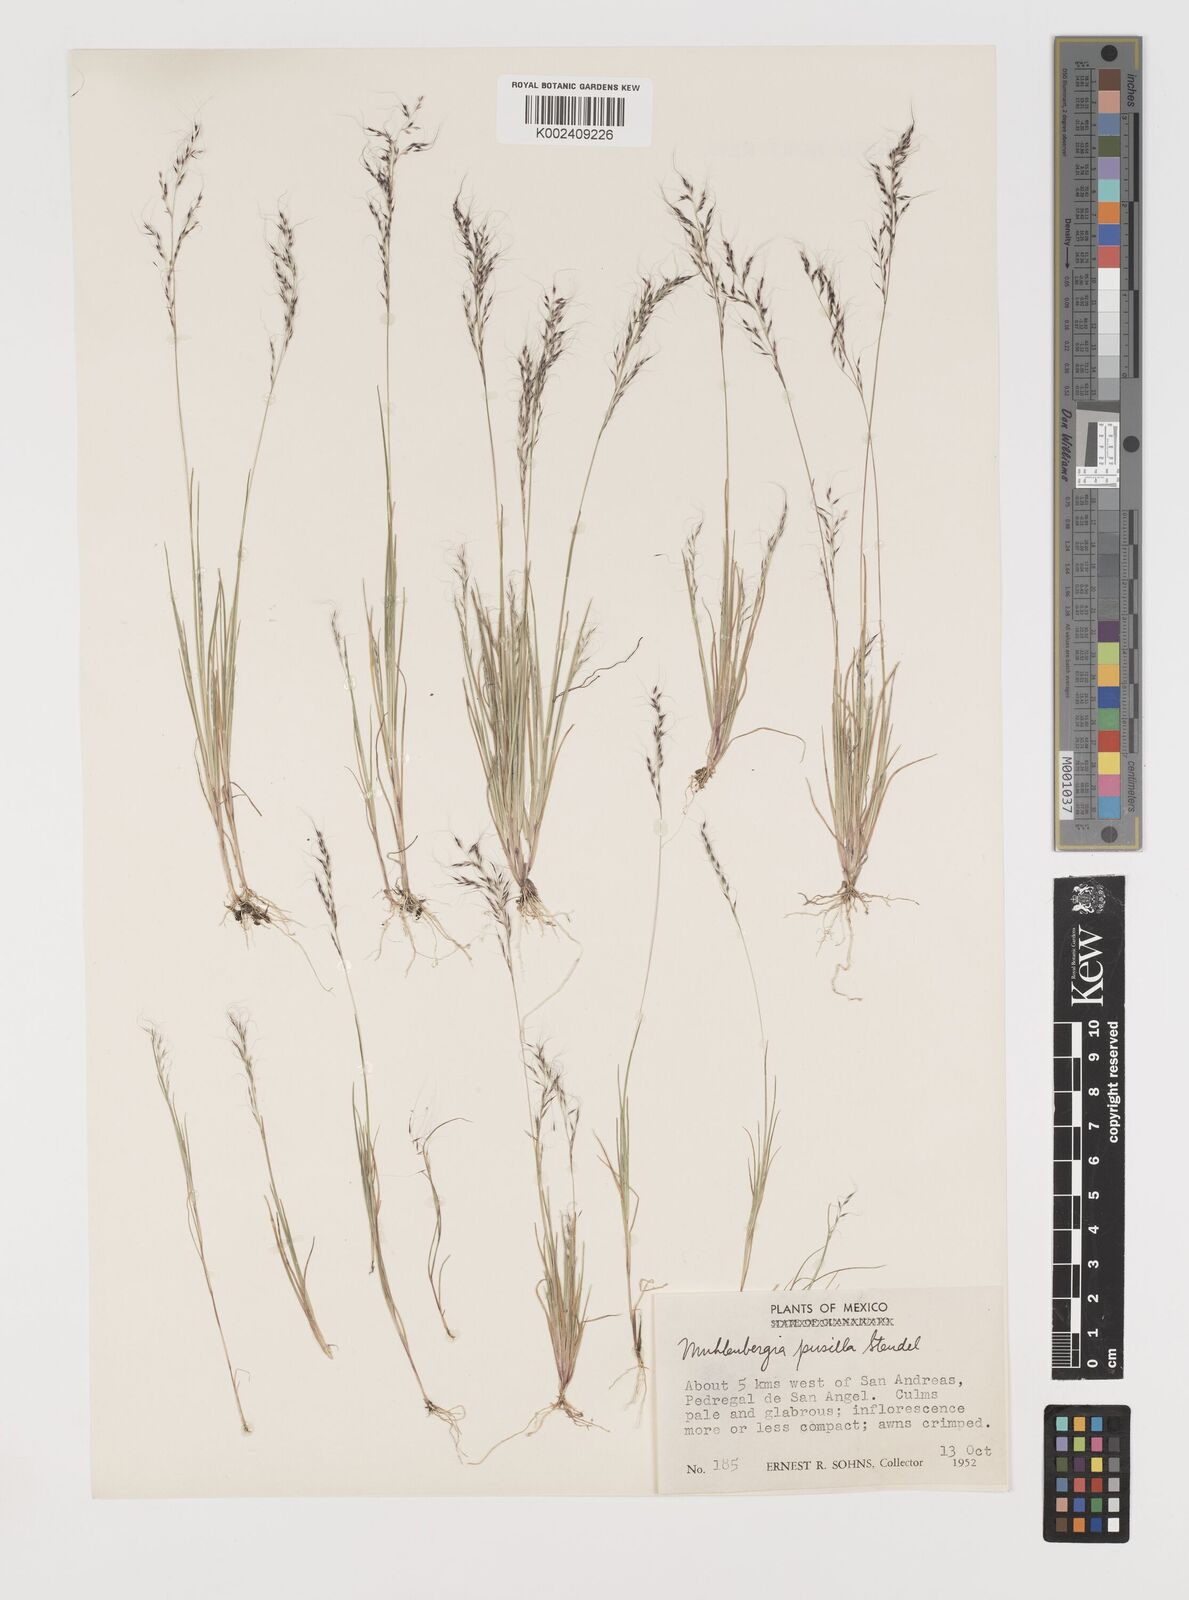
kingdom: Plantae
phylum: Tracheophyta
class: Liliopsida
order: Poales
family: Poaceae
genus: Muhlenbergia
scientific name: Muhlenbergia peruviana
